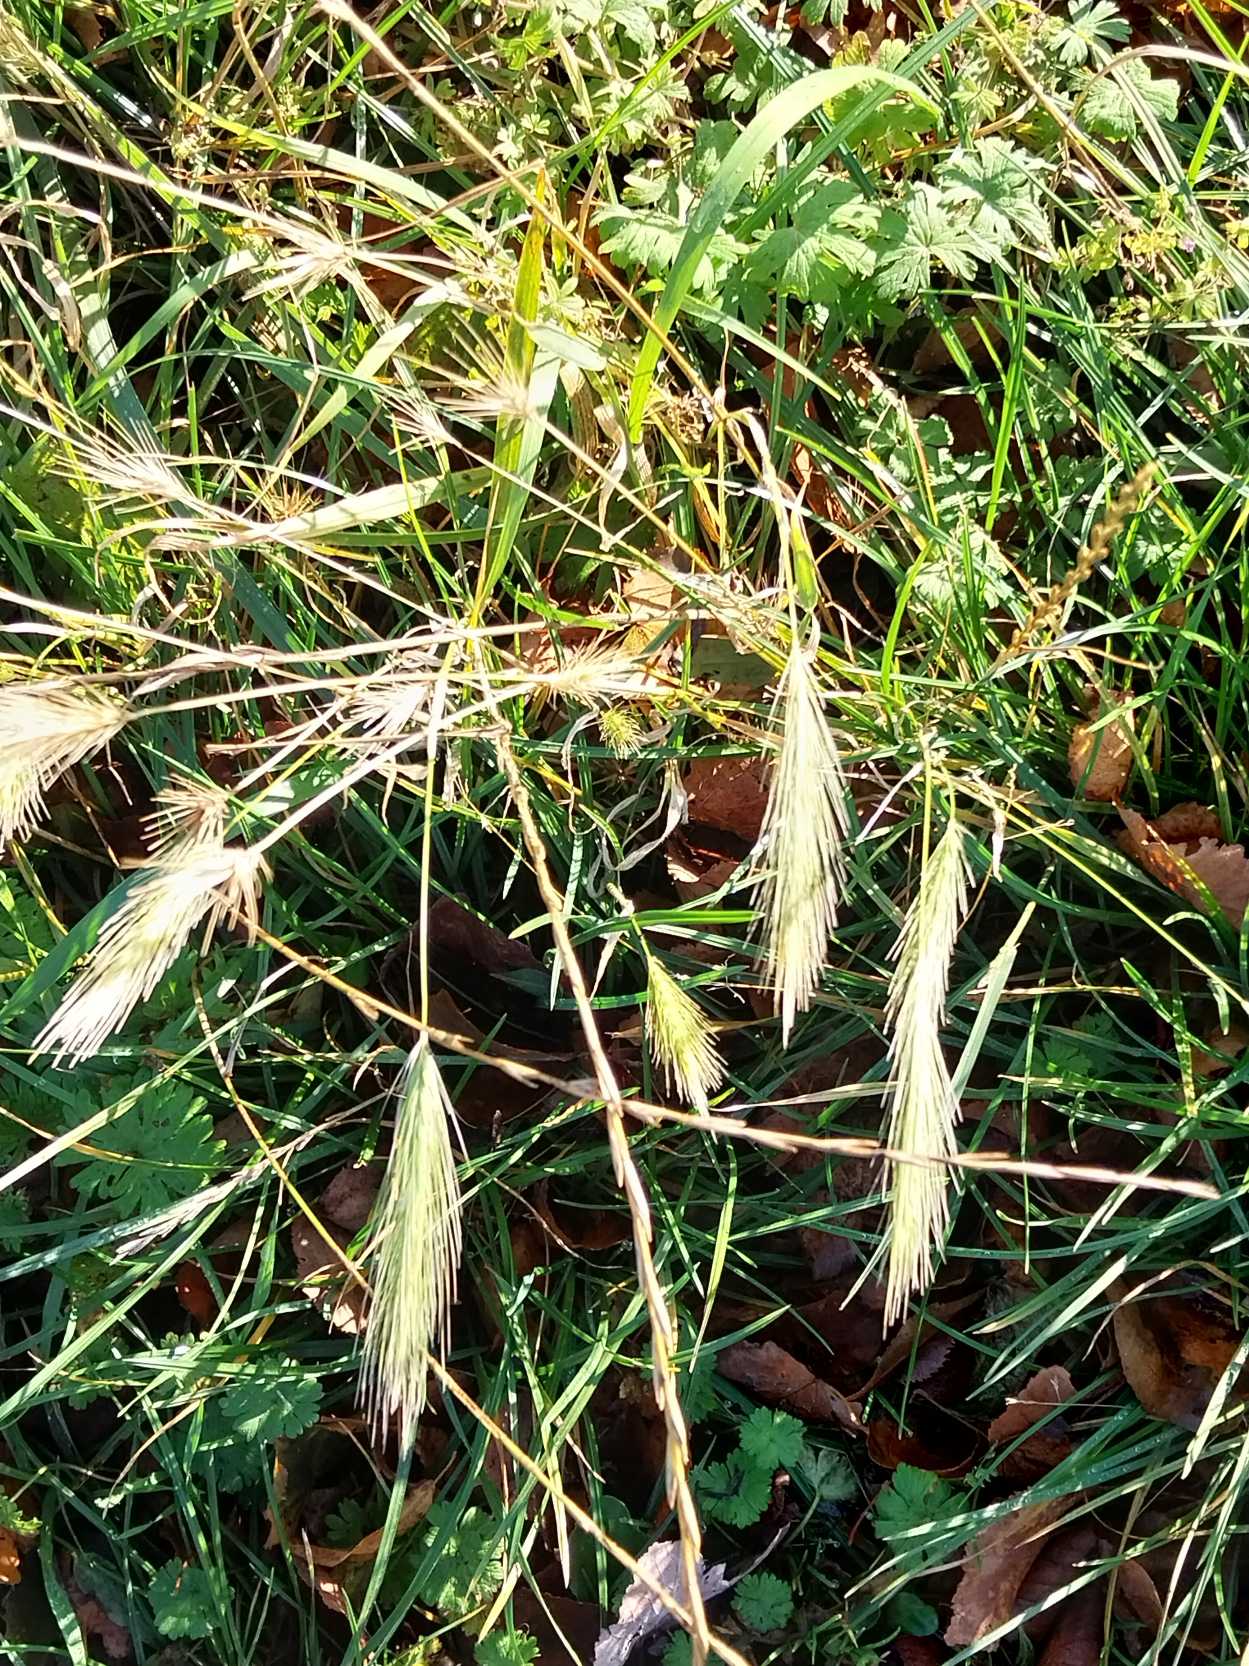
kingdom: Plantae
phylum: Tracheophyta
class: Liliopsida
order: Poales
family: Poaceae
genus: Hordeum
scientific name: Hordeum murinum
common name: Gold byg
